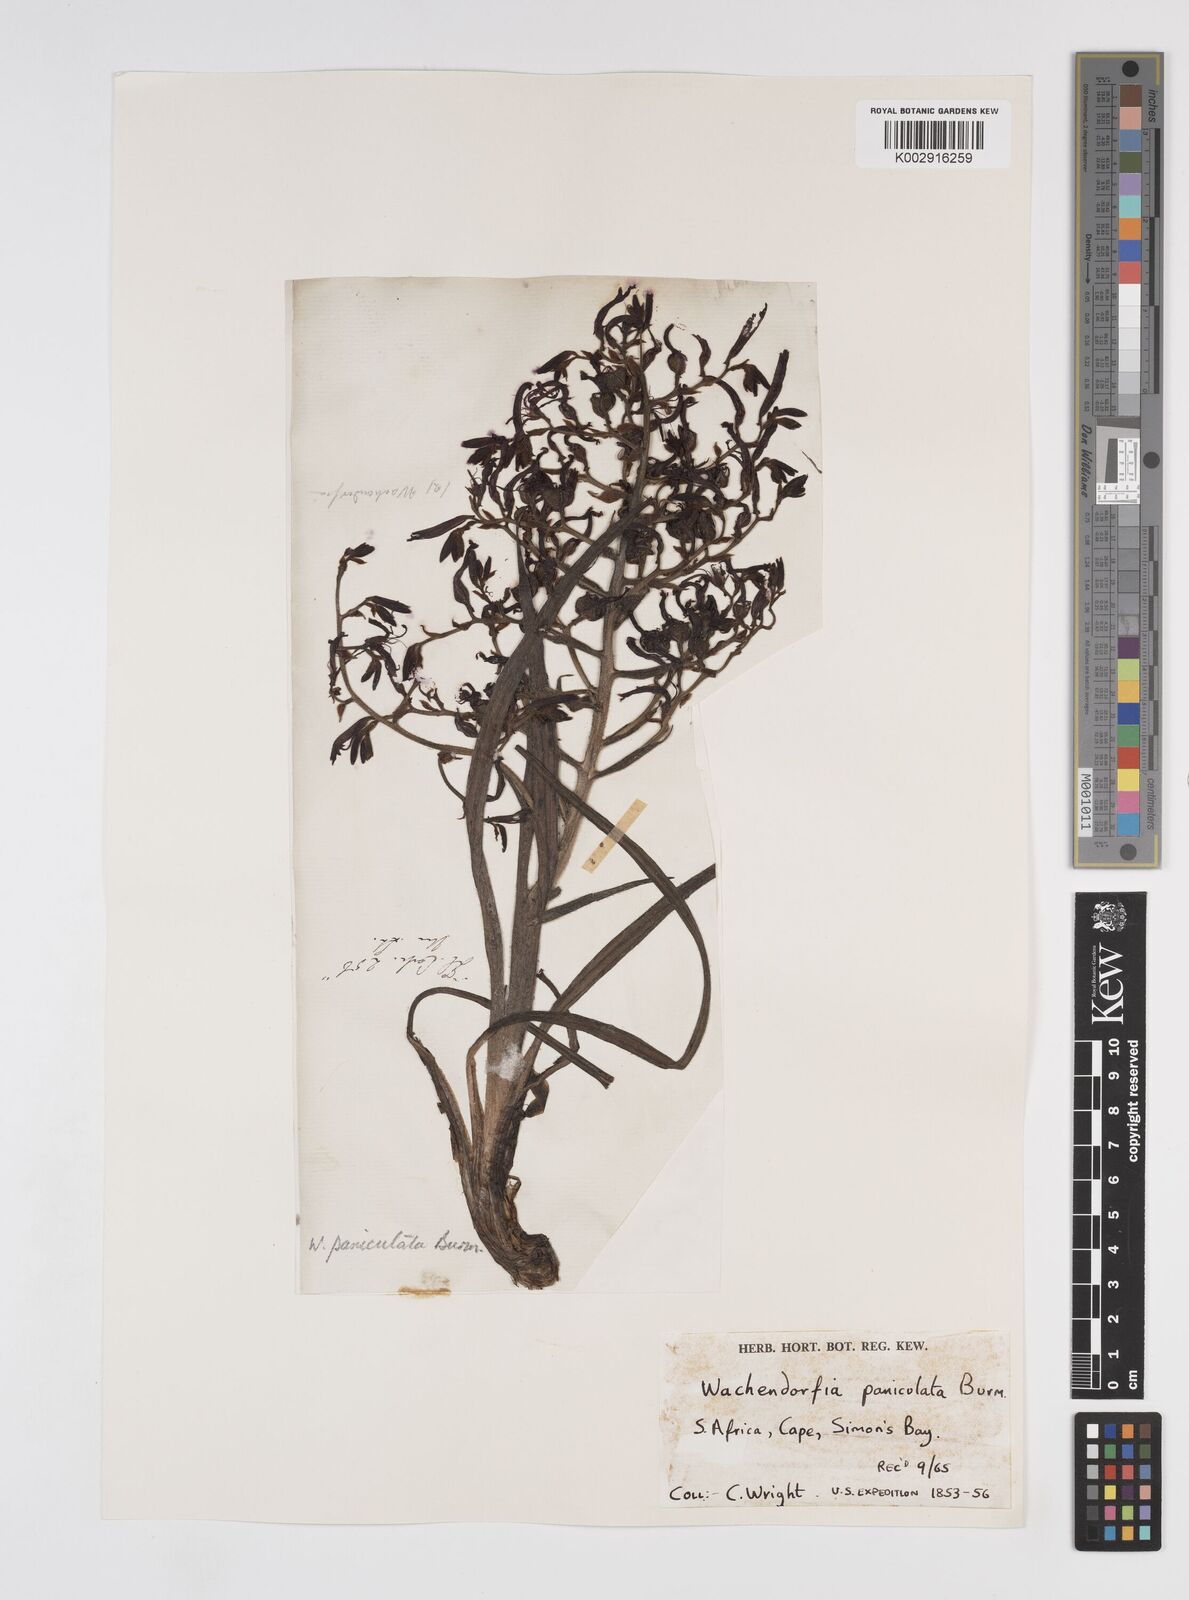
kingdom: Plantae
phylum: Tracheophyta
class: Liliopsida
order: Commelinales
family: Haemodoraceae
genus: Wachendorfia
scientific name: Wachendorfia paniculata
